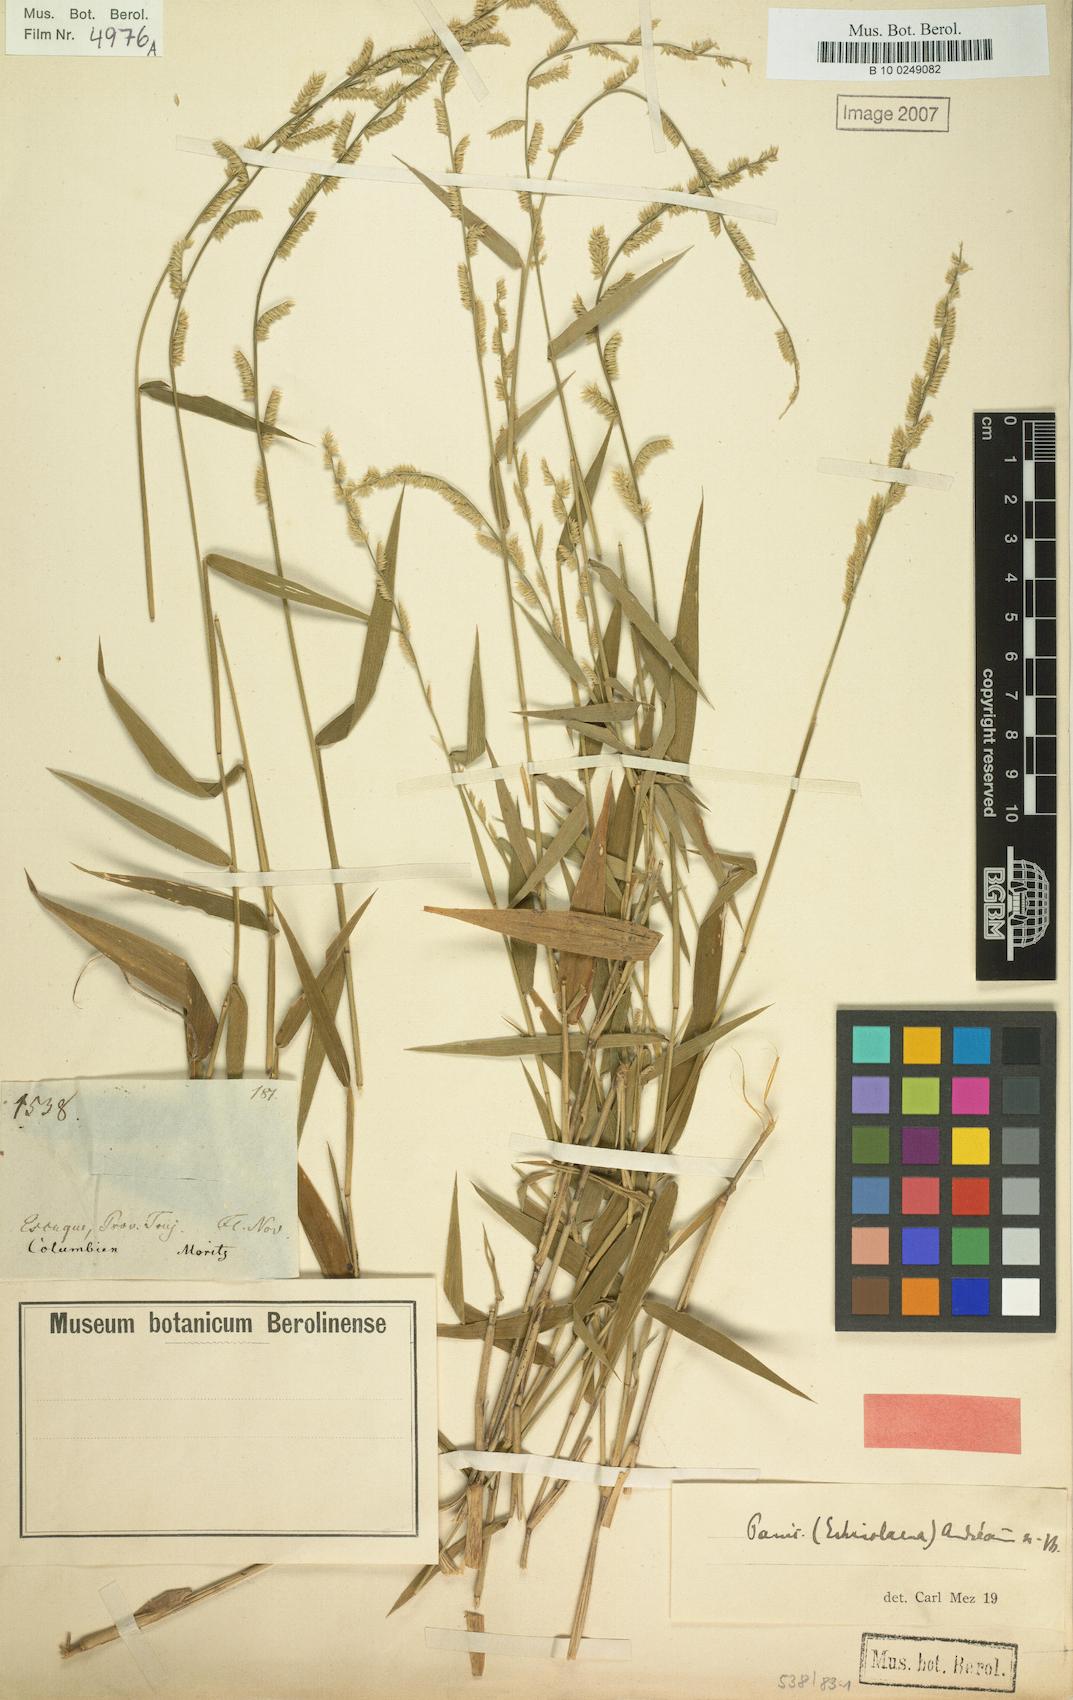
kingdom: Plantae
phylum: Tracheophyta
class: Liliopsida
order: Poales
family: Poaceae
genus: Ocellochloa
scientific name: Ocellochloa andreana
